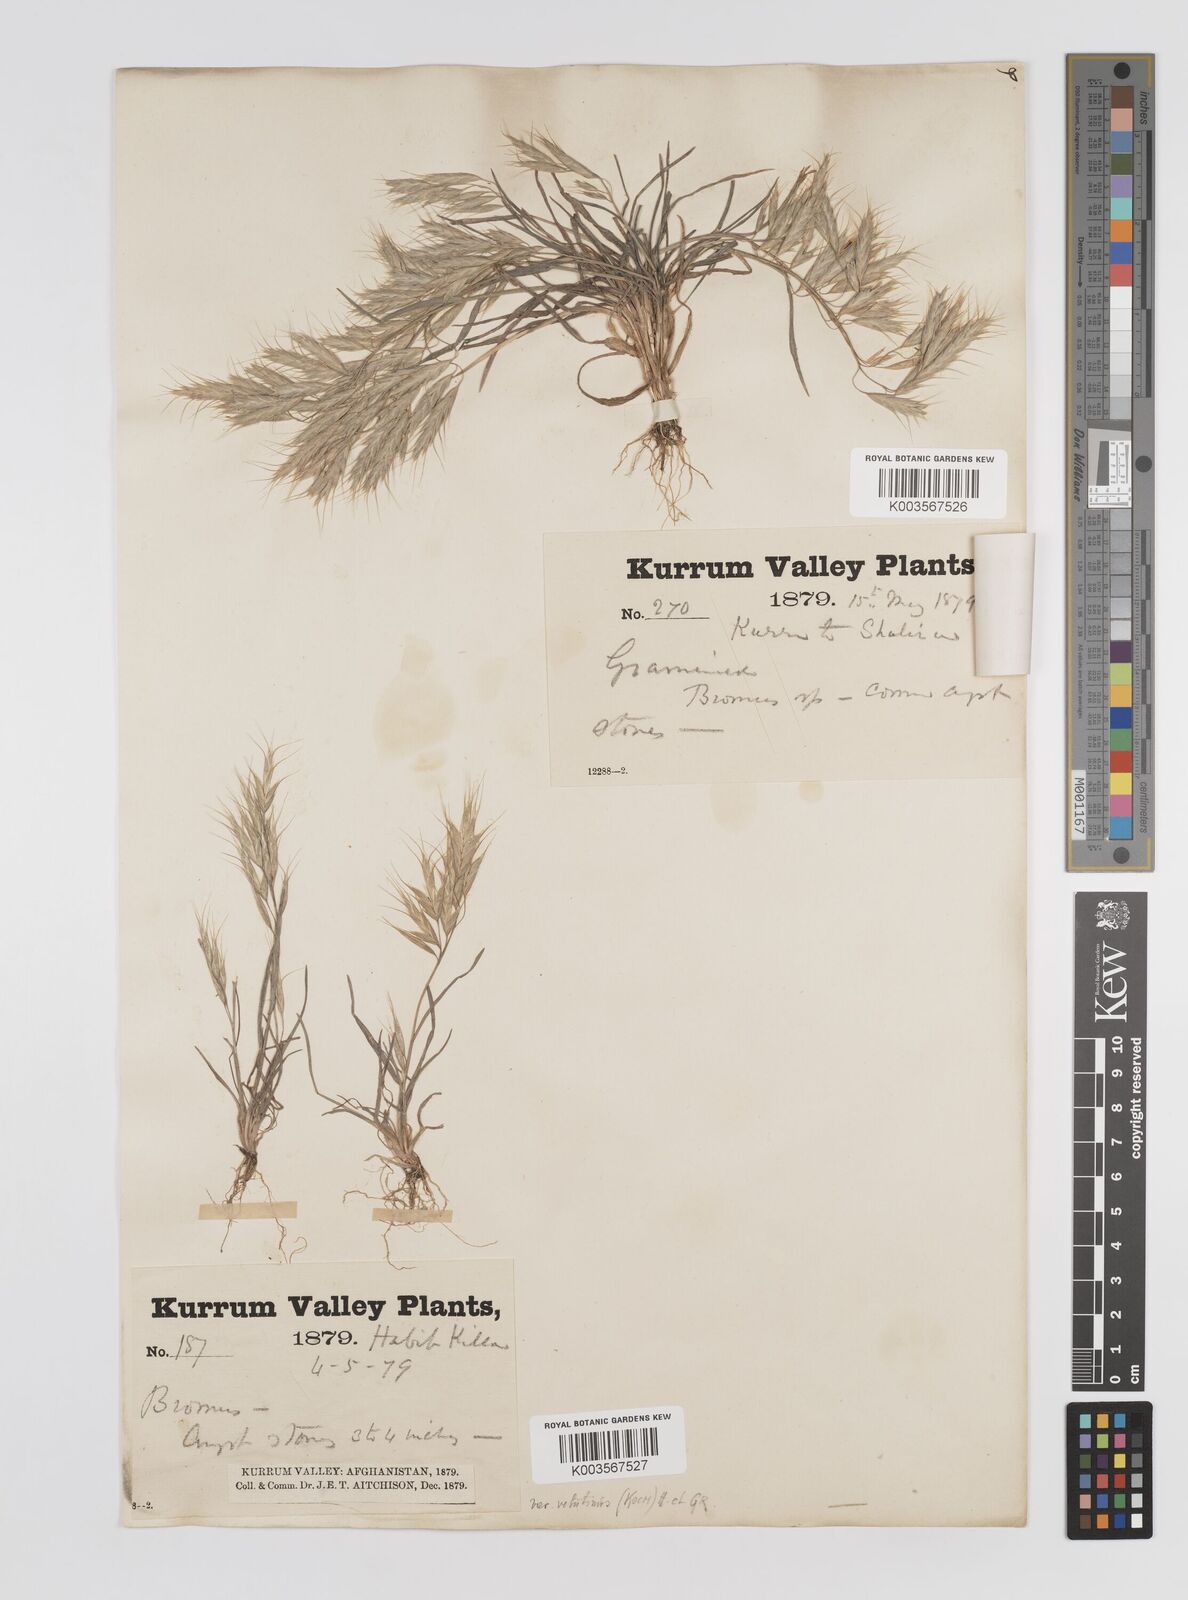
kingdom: Plantae
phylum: Tracheophyta
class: Liliopsida
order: Poales
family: Poaceae
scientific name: Poaceae
